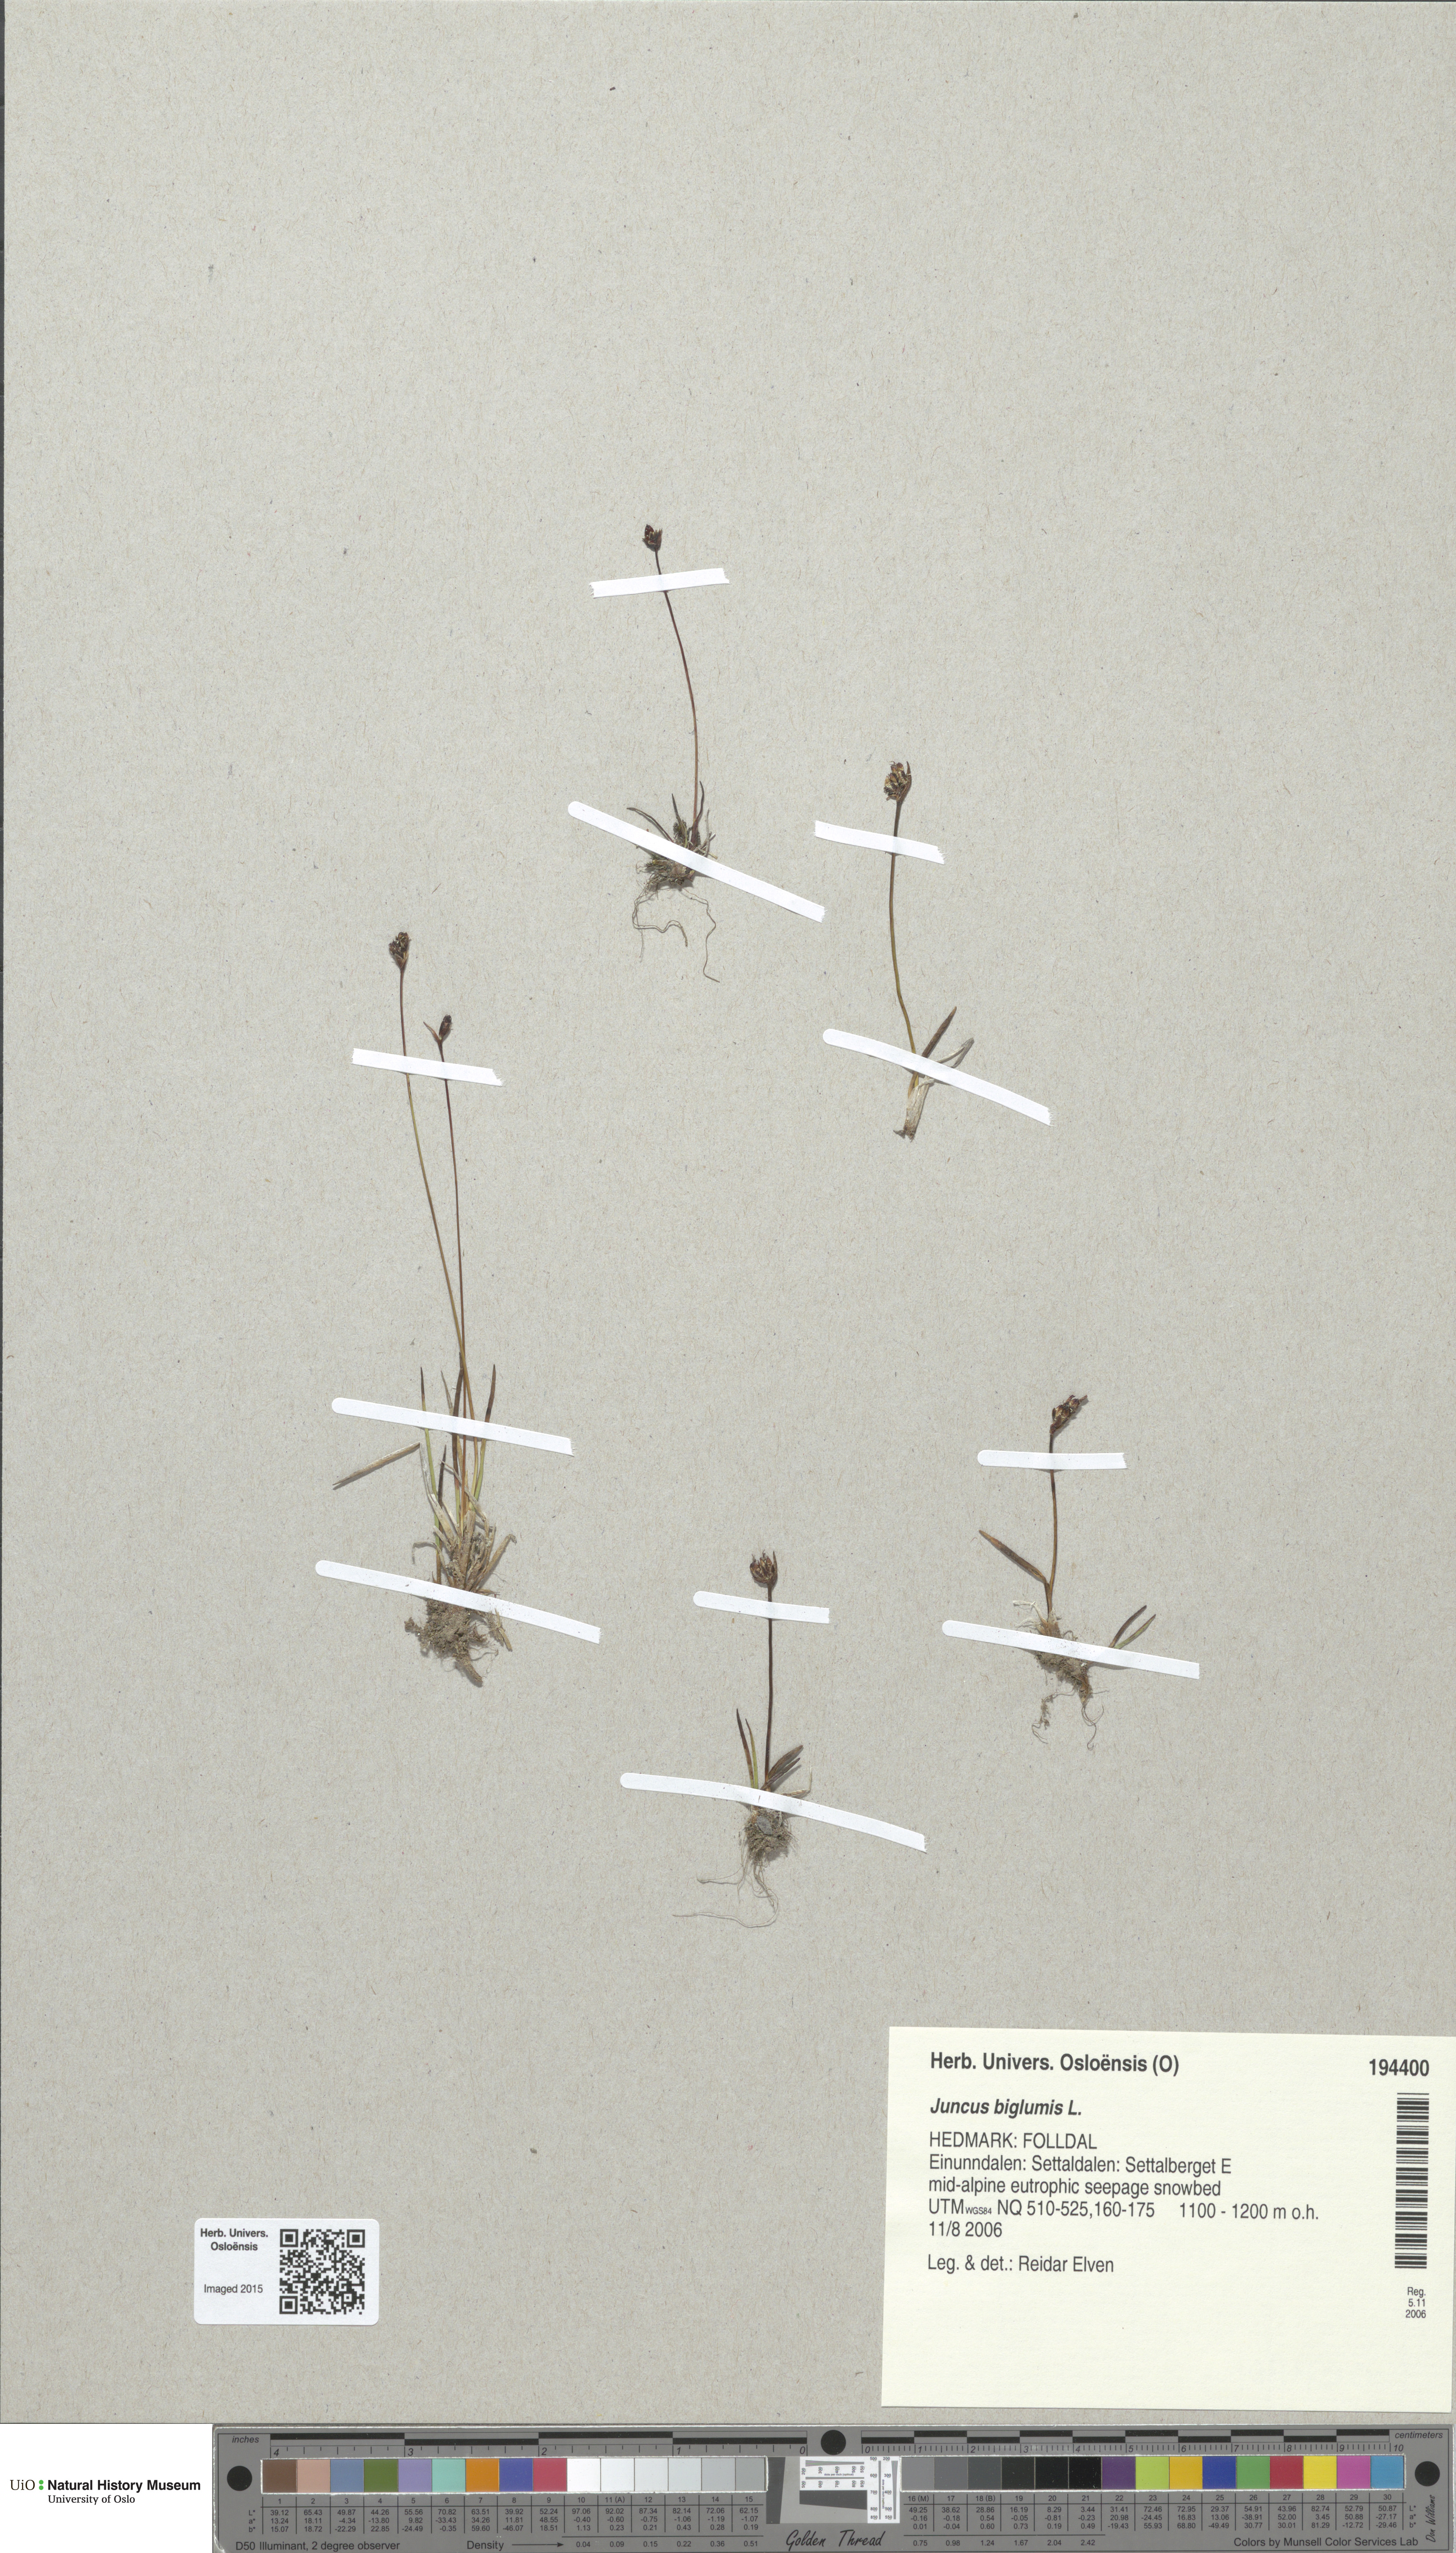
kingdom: Plantae
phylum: Tracheophyta
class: Liliopsida
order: Poales
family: Juncaceae
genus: Juncus
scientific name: Juncus biglumis
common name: Two-flowered rush
